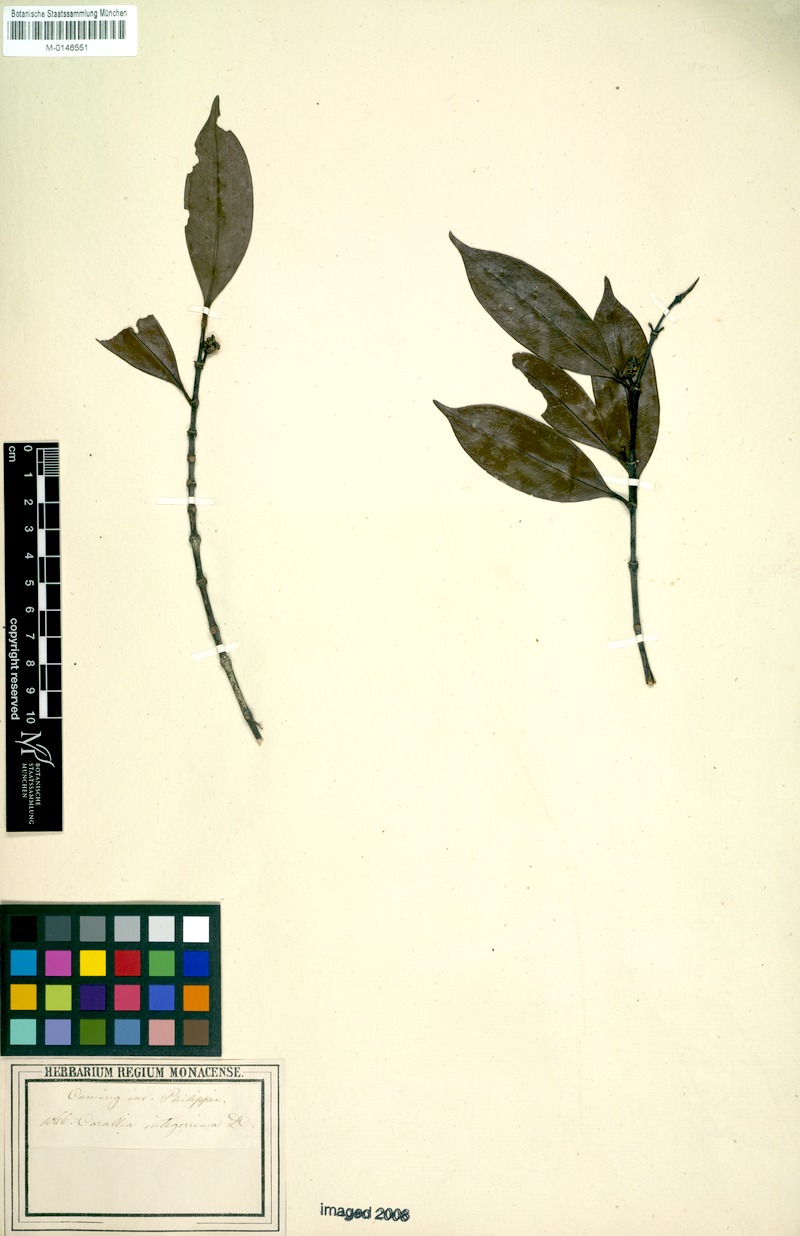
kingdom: Plantae
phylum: Tracheophyta
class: Magnoliopsida
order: Malpighiales
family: Rhizophoraceae
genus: Carallia
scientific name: Carallia brachiata
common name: Carallawood
